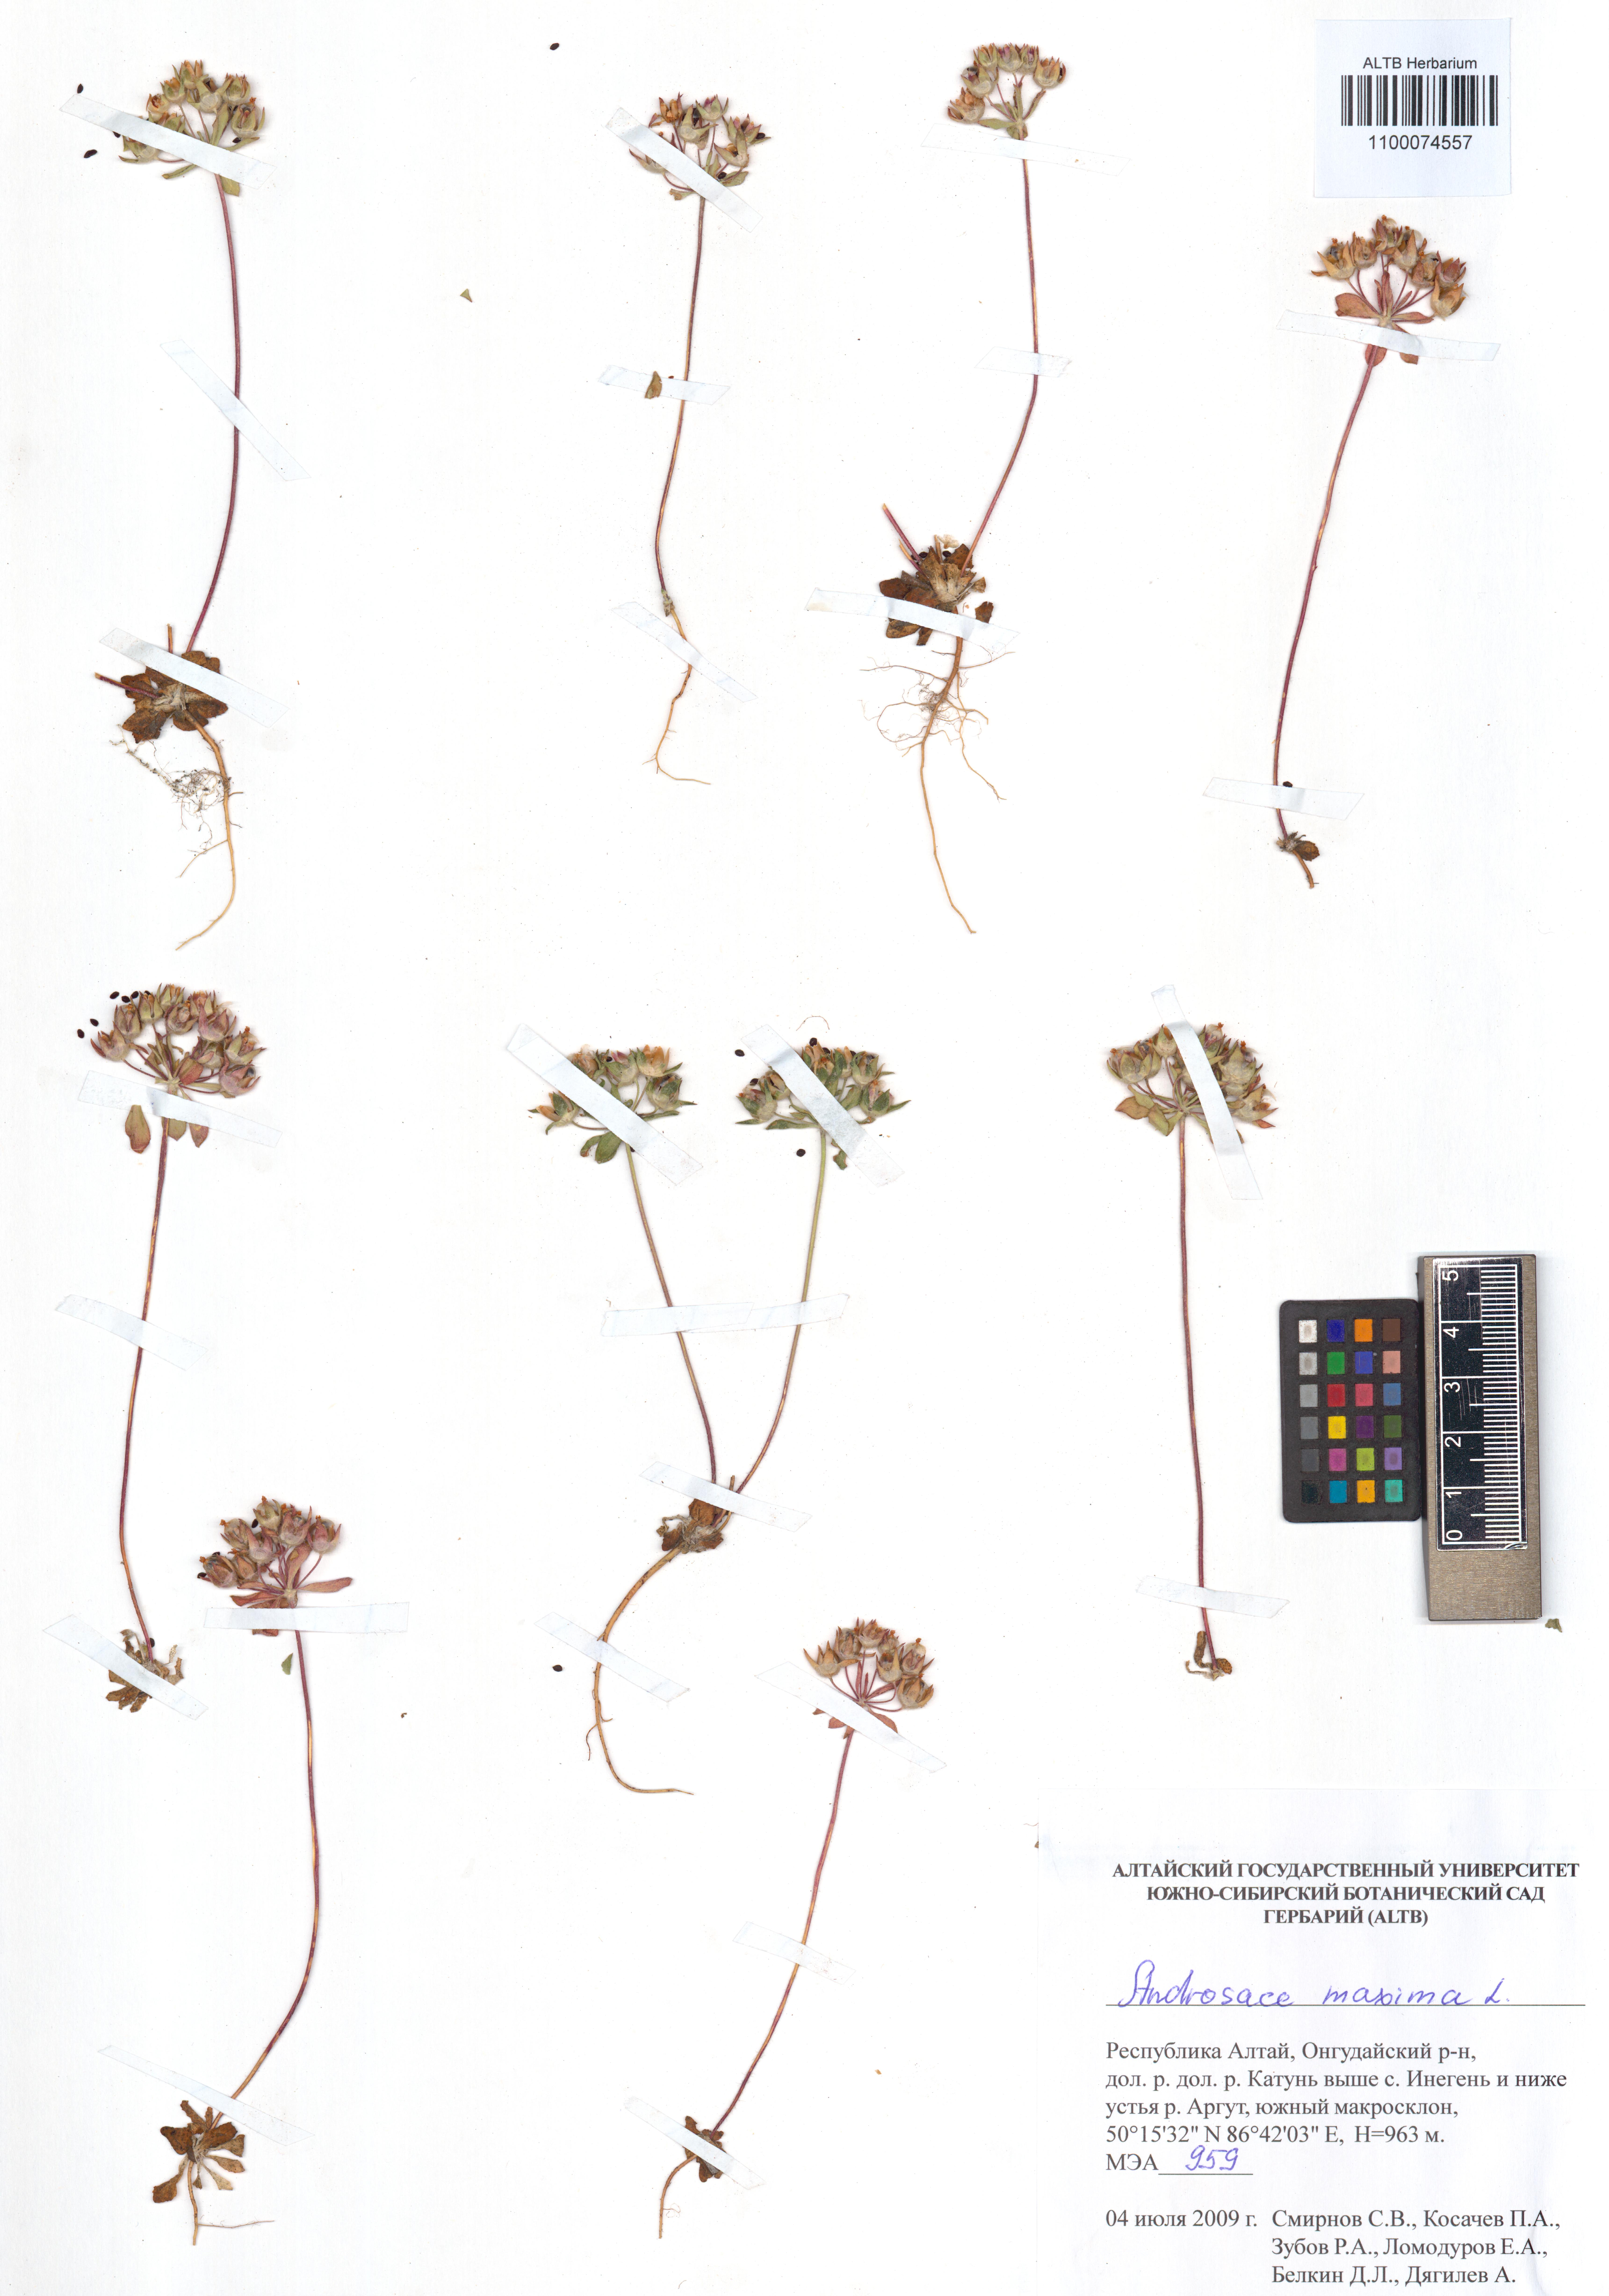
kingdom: Plantae
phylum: Tracheophyta
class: Magnoliopsida
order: Ericales
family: Primulaceae
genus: Androsace
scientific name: Androsace maxima
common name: Annual androsace
